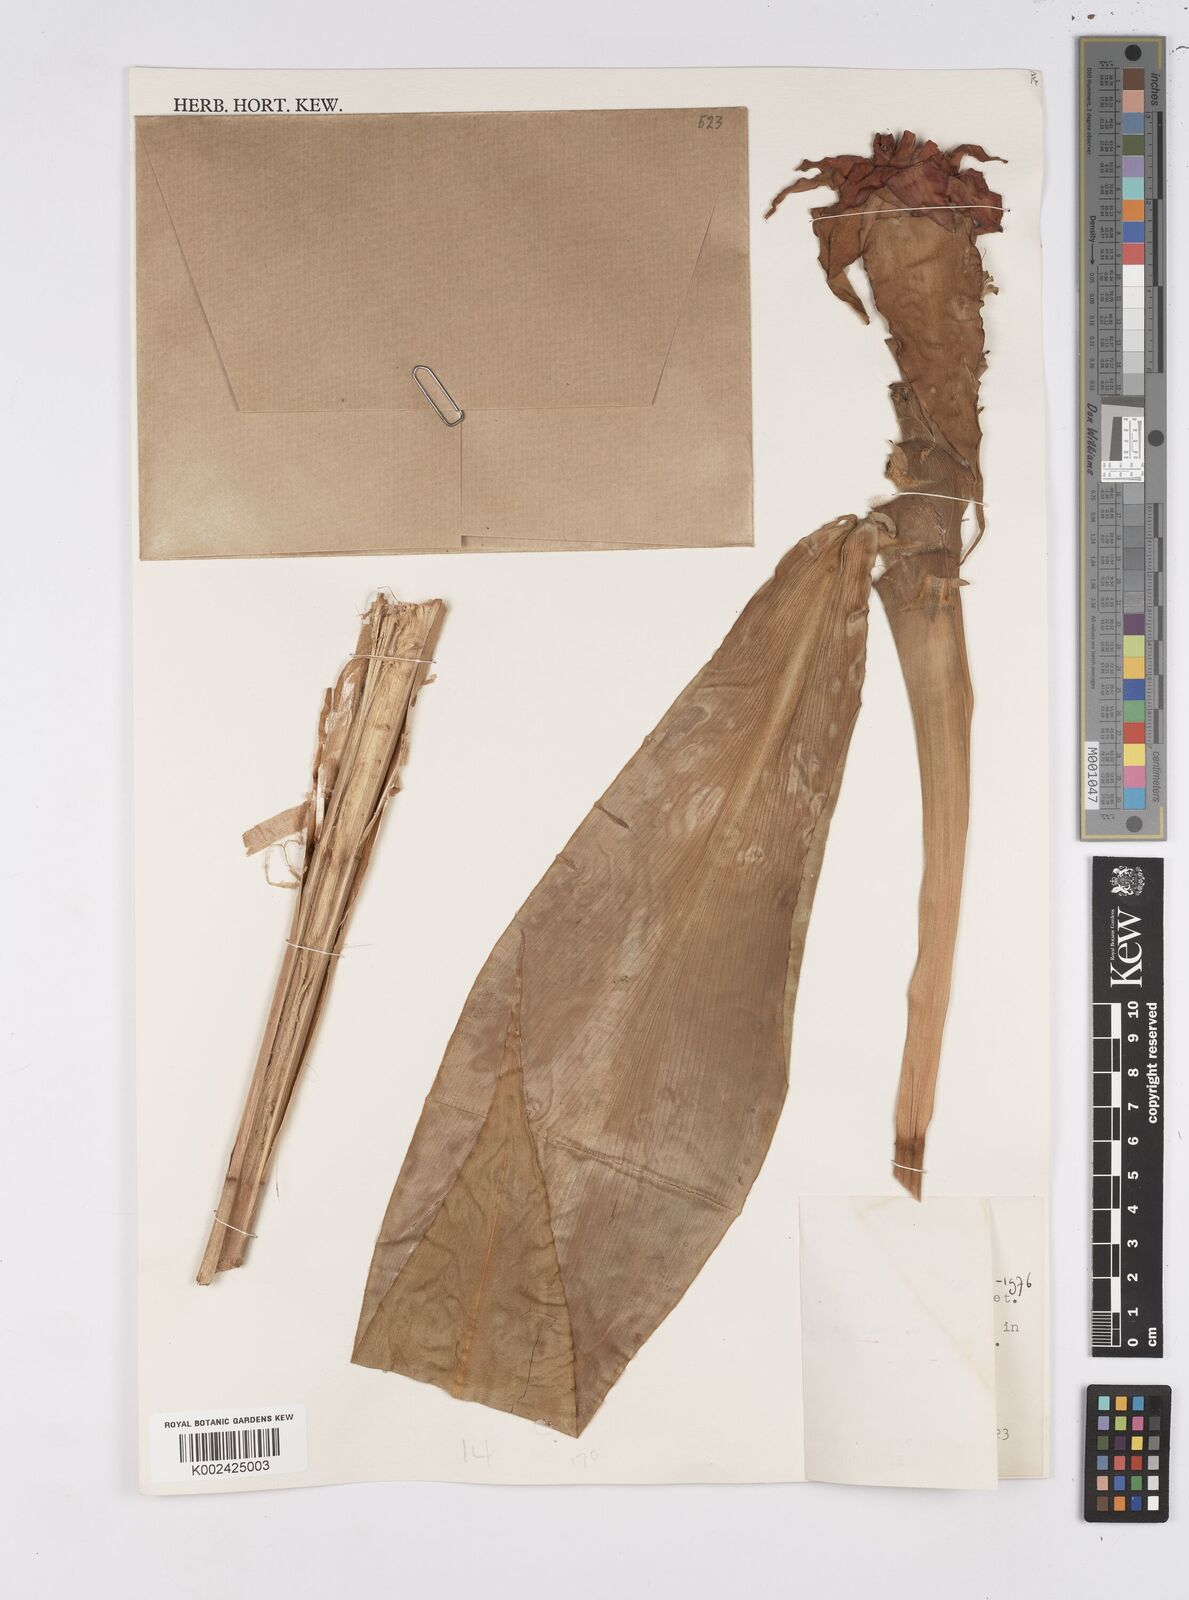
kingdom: Plantae
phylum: Tracheophyta
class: Liliopsida
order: Zingiberales
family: Costaceae
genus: Costus
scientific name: Costus lima
